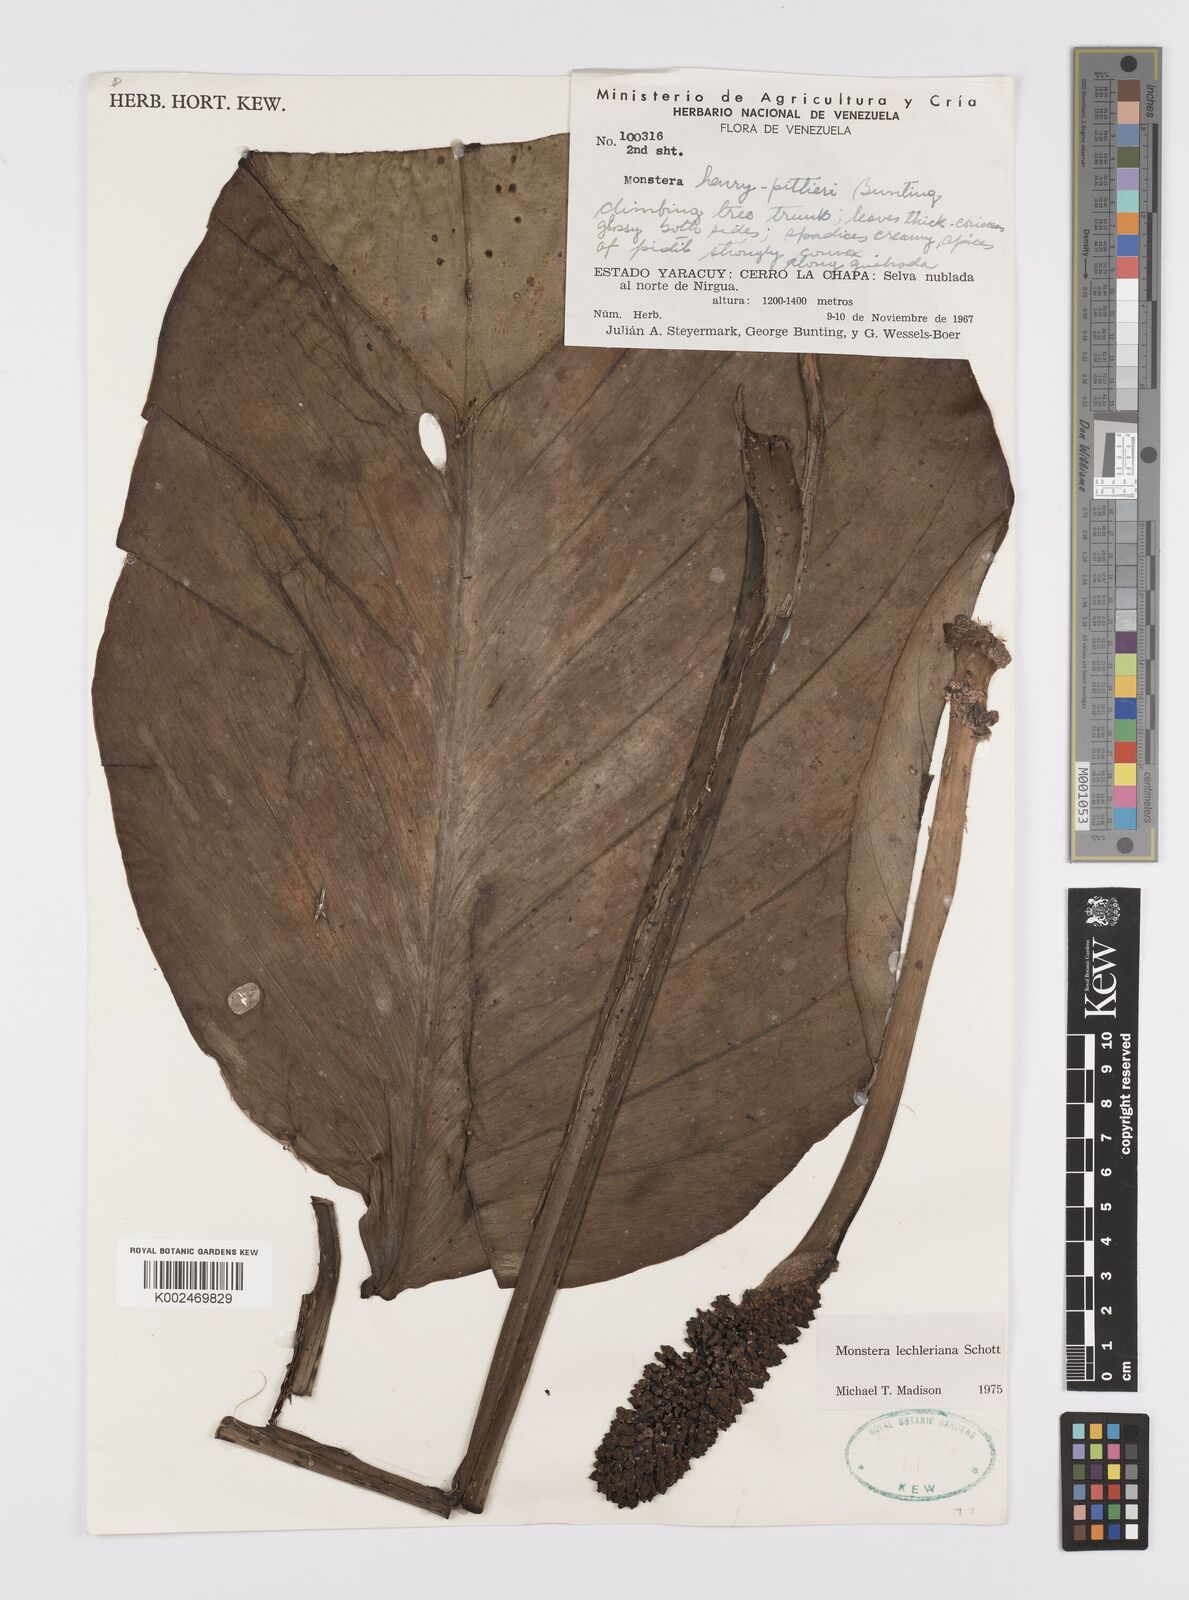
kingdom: Plantae
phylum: Tracheophyta
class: Liliopsida
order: Alismatales
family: Araceae
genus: Monstera
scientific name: Monstera lechleriana
